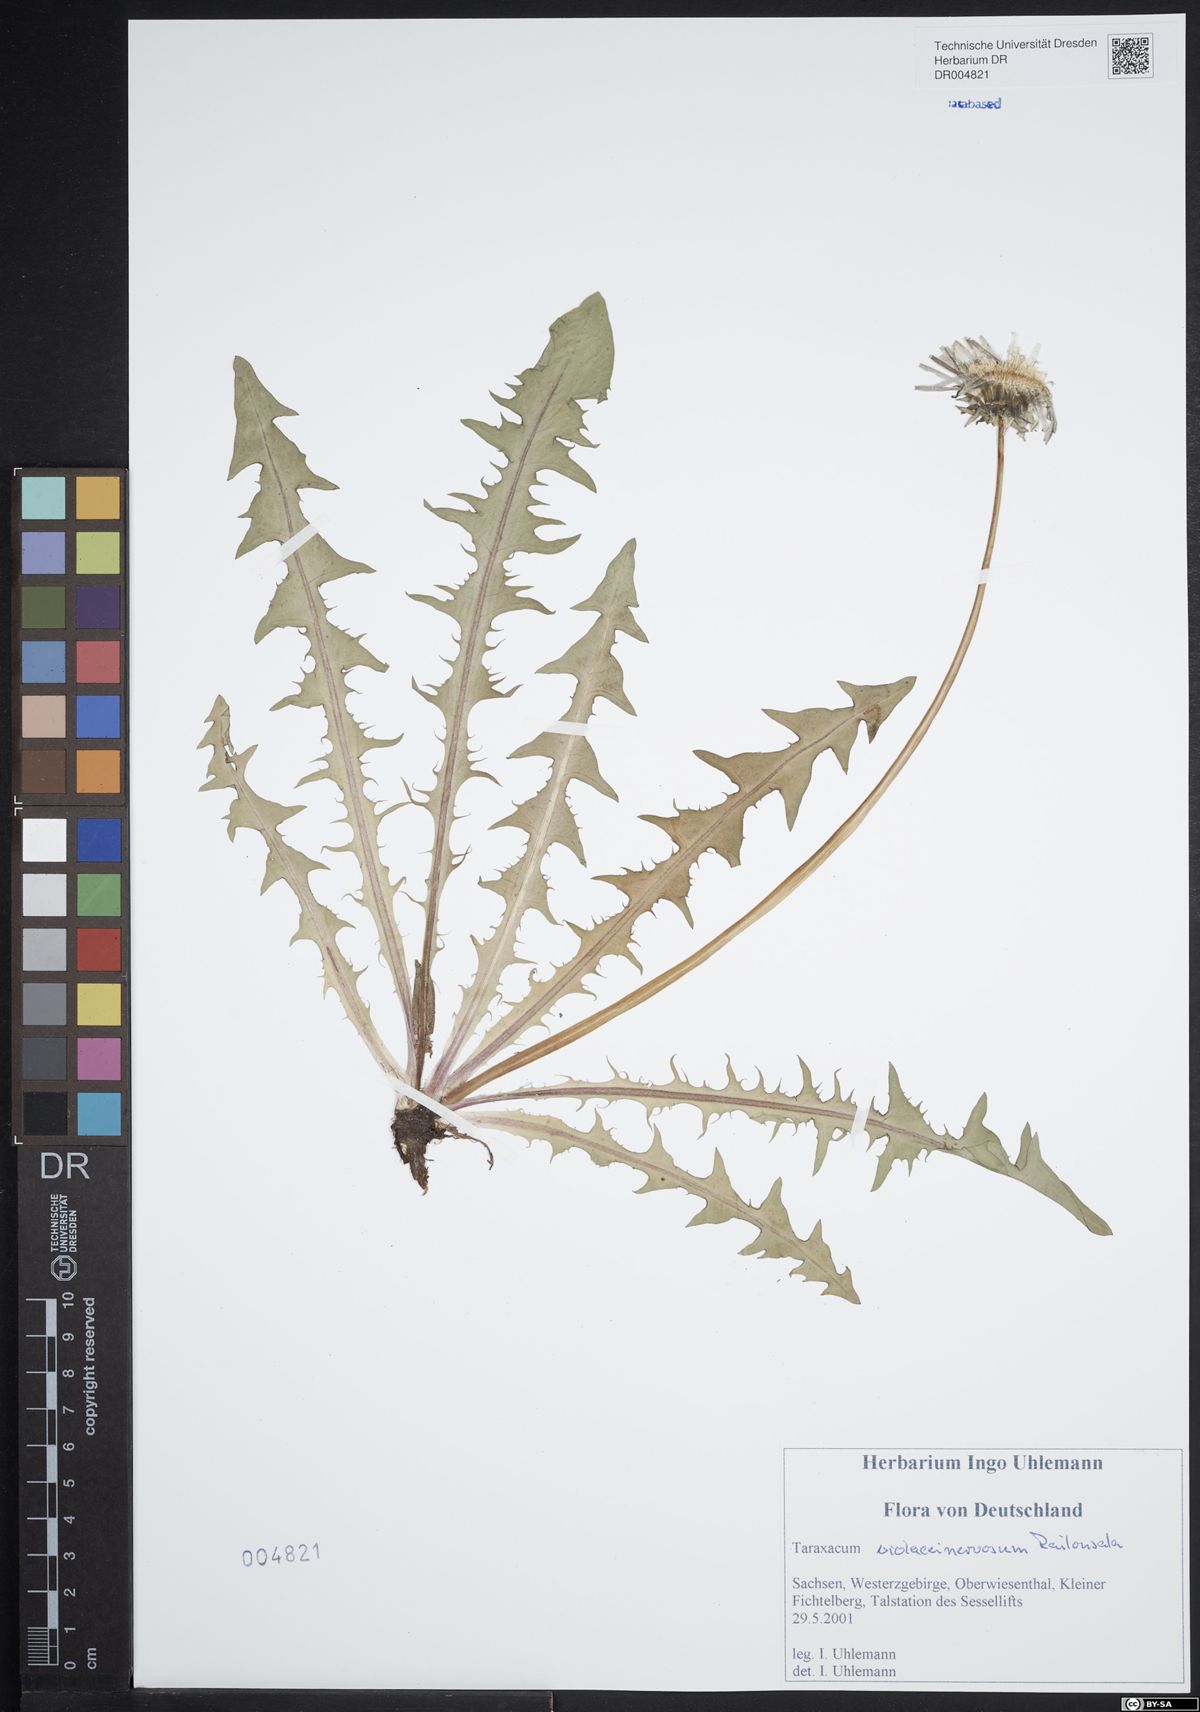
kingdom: Plantae
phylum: Tracheophyta
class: Magnoliopsida
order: Asterales
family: Asteraceae
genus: Taraxacum
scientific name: Taraxacum violaceinervosum
